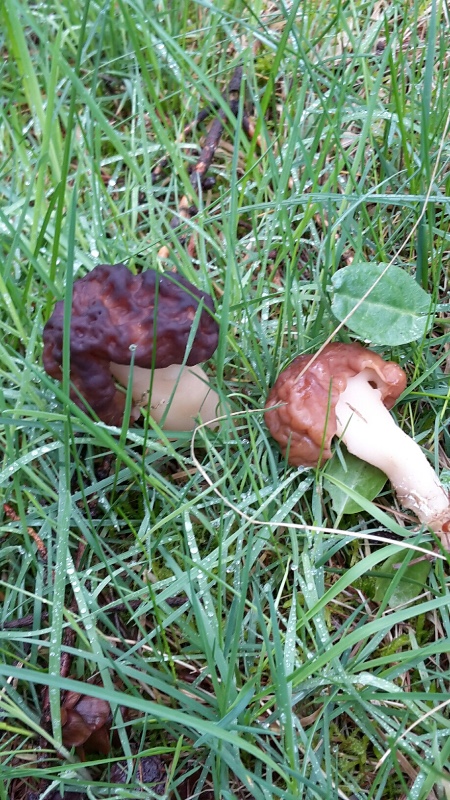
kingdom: Fungi
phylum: Ascomycota
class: Pezizomycetes
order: Pezizales
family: Discinaceae
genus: Gyromitra
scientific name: Gyromitra esculenta
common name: ægte stenmorkel
